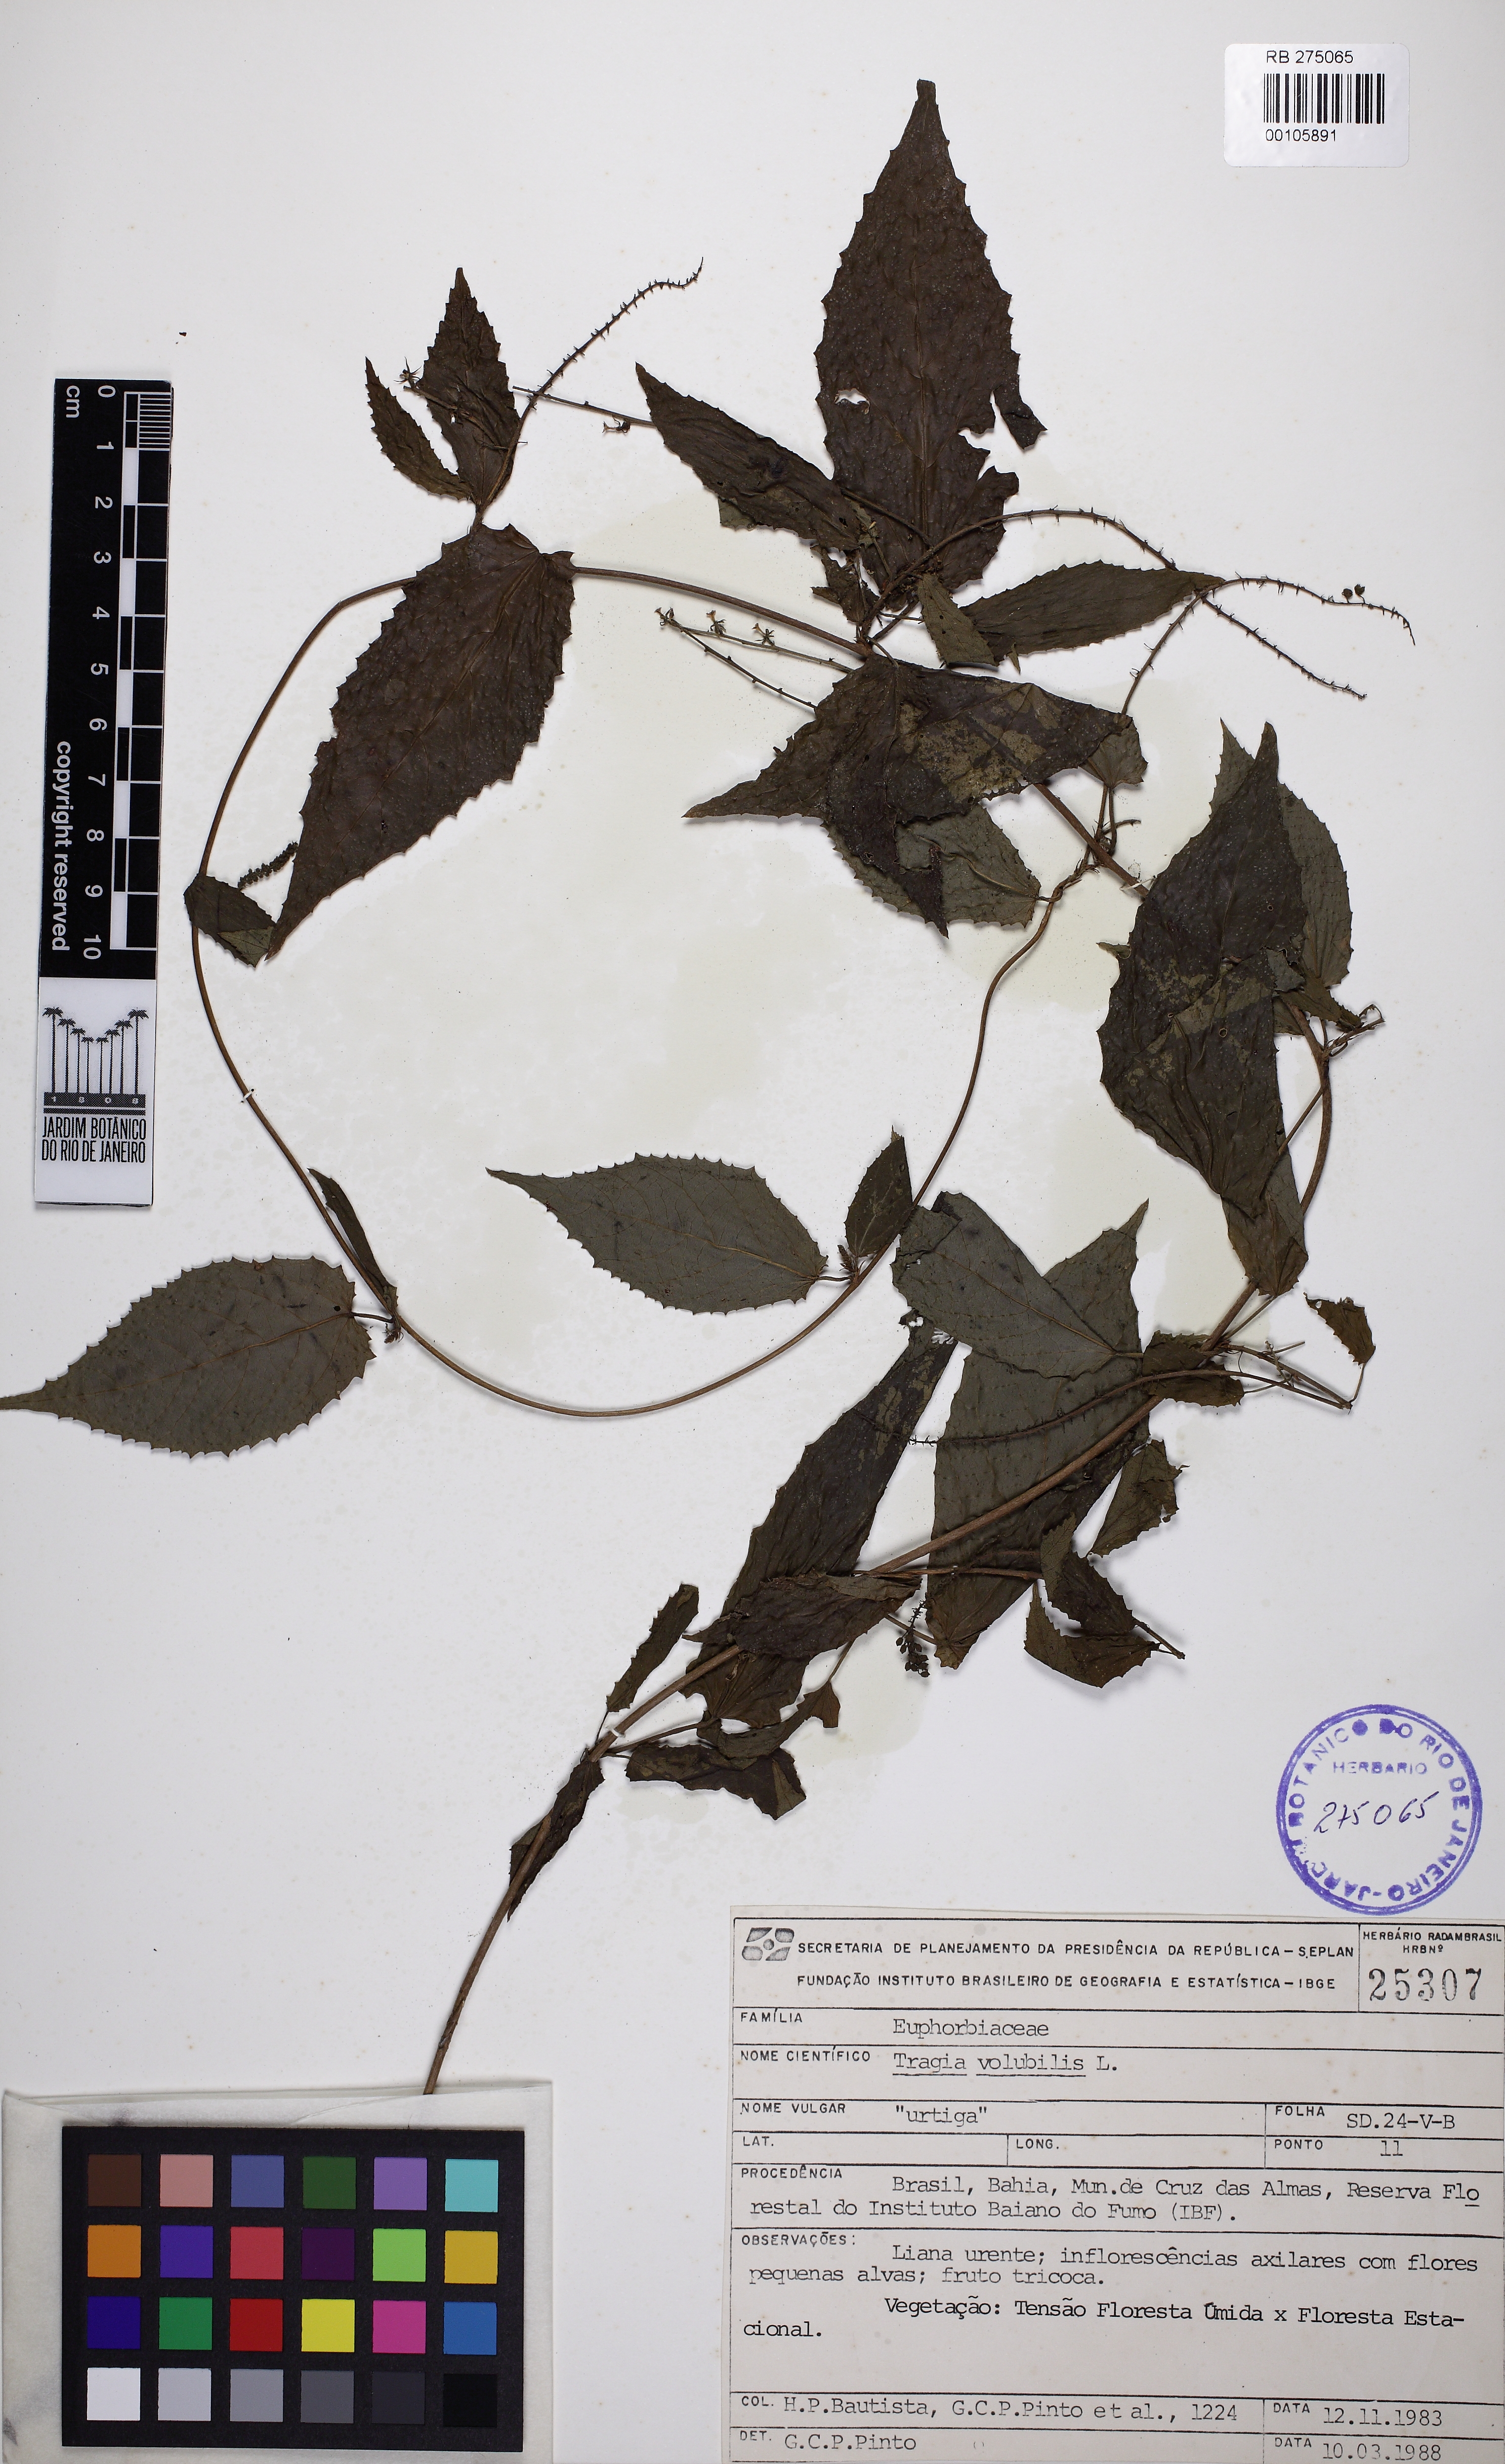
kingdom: Plantae
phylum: Tracheophyta
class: Magnoliopsida
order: Malpighiales
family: Euphorbiaceae
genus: Bia
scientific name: Bia lessertiana
